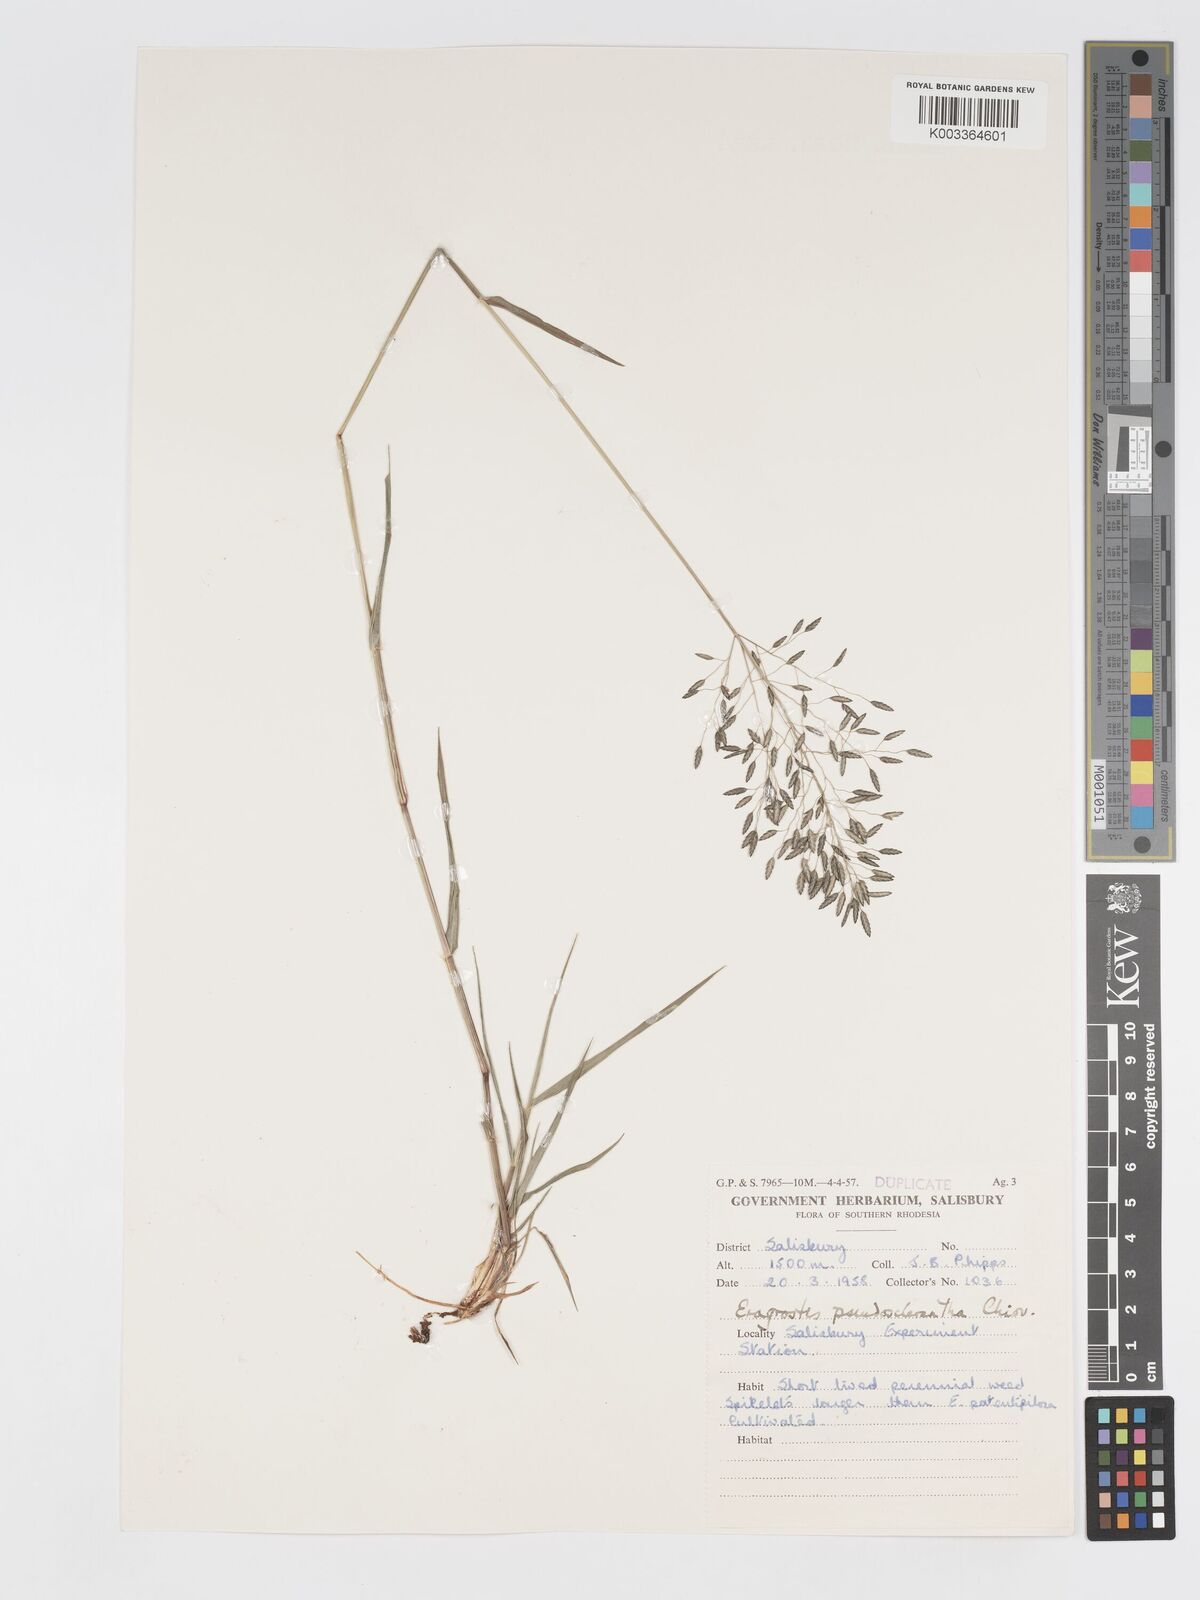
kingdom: Plantae
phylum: Tracheophyta
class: Liliopsida
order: Poales
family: Poaceae
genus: Eragrostis
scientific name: Eragrostis patentipilosa
